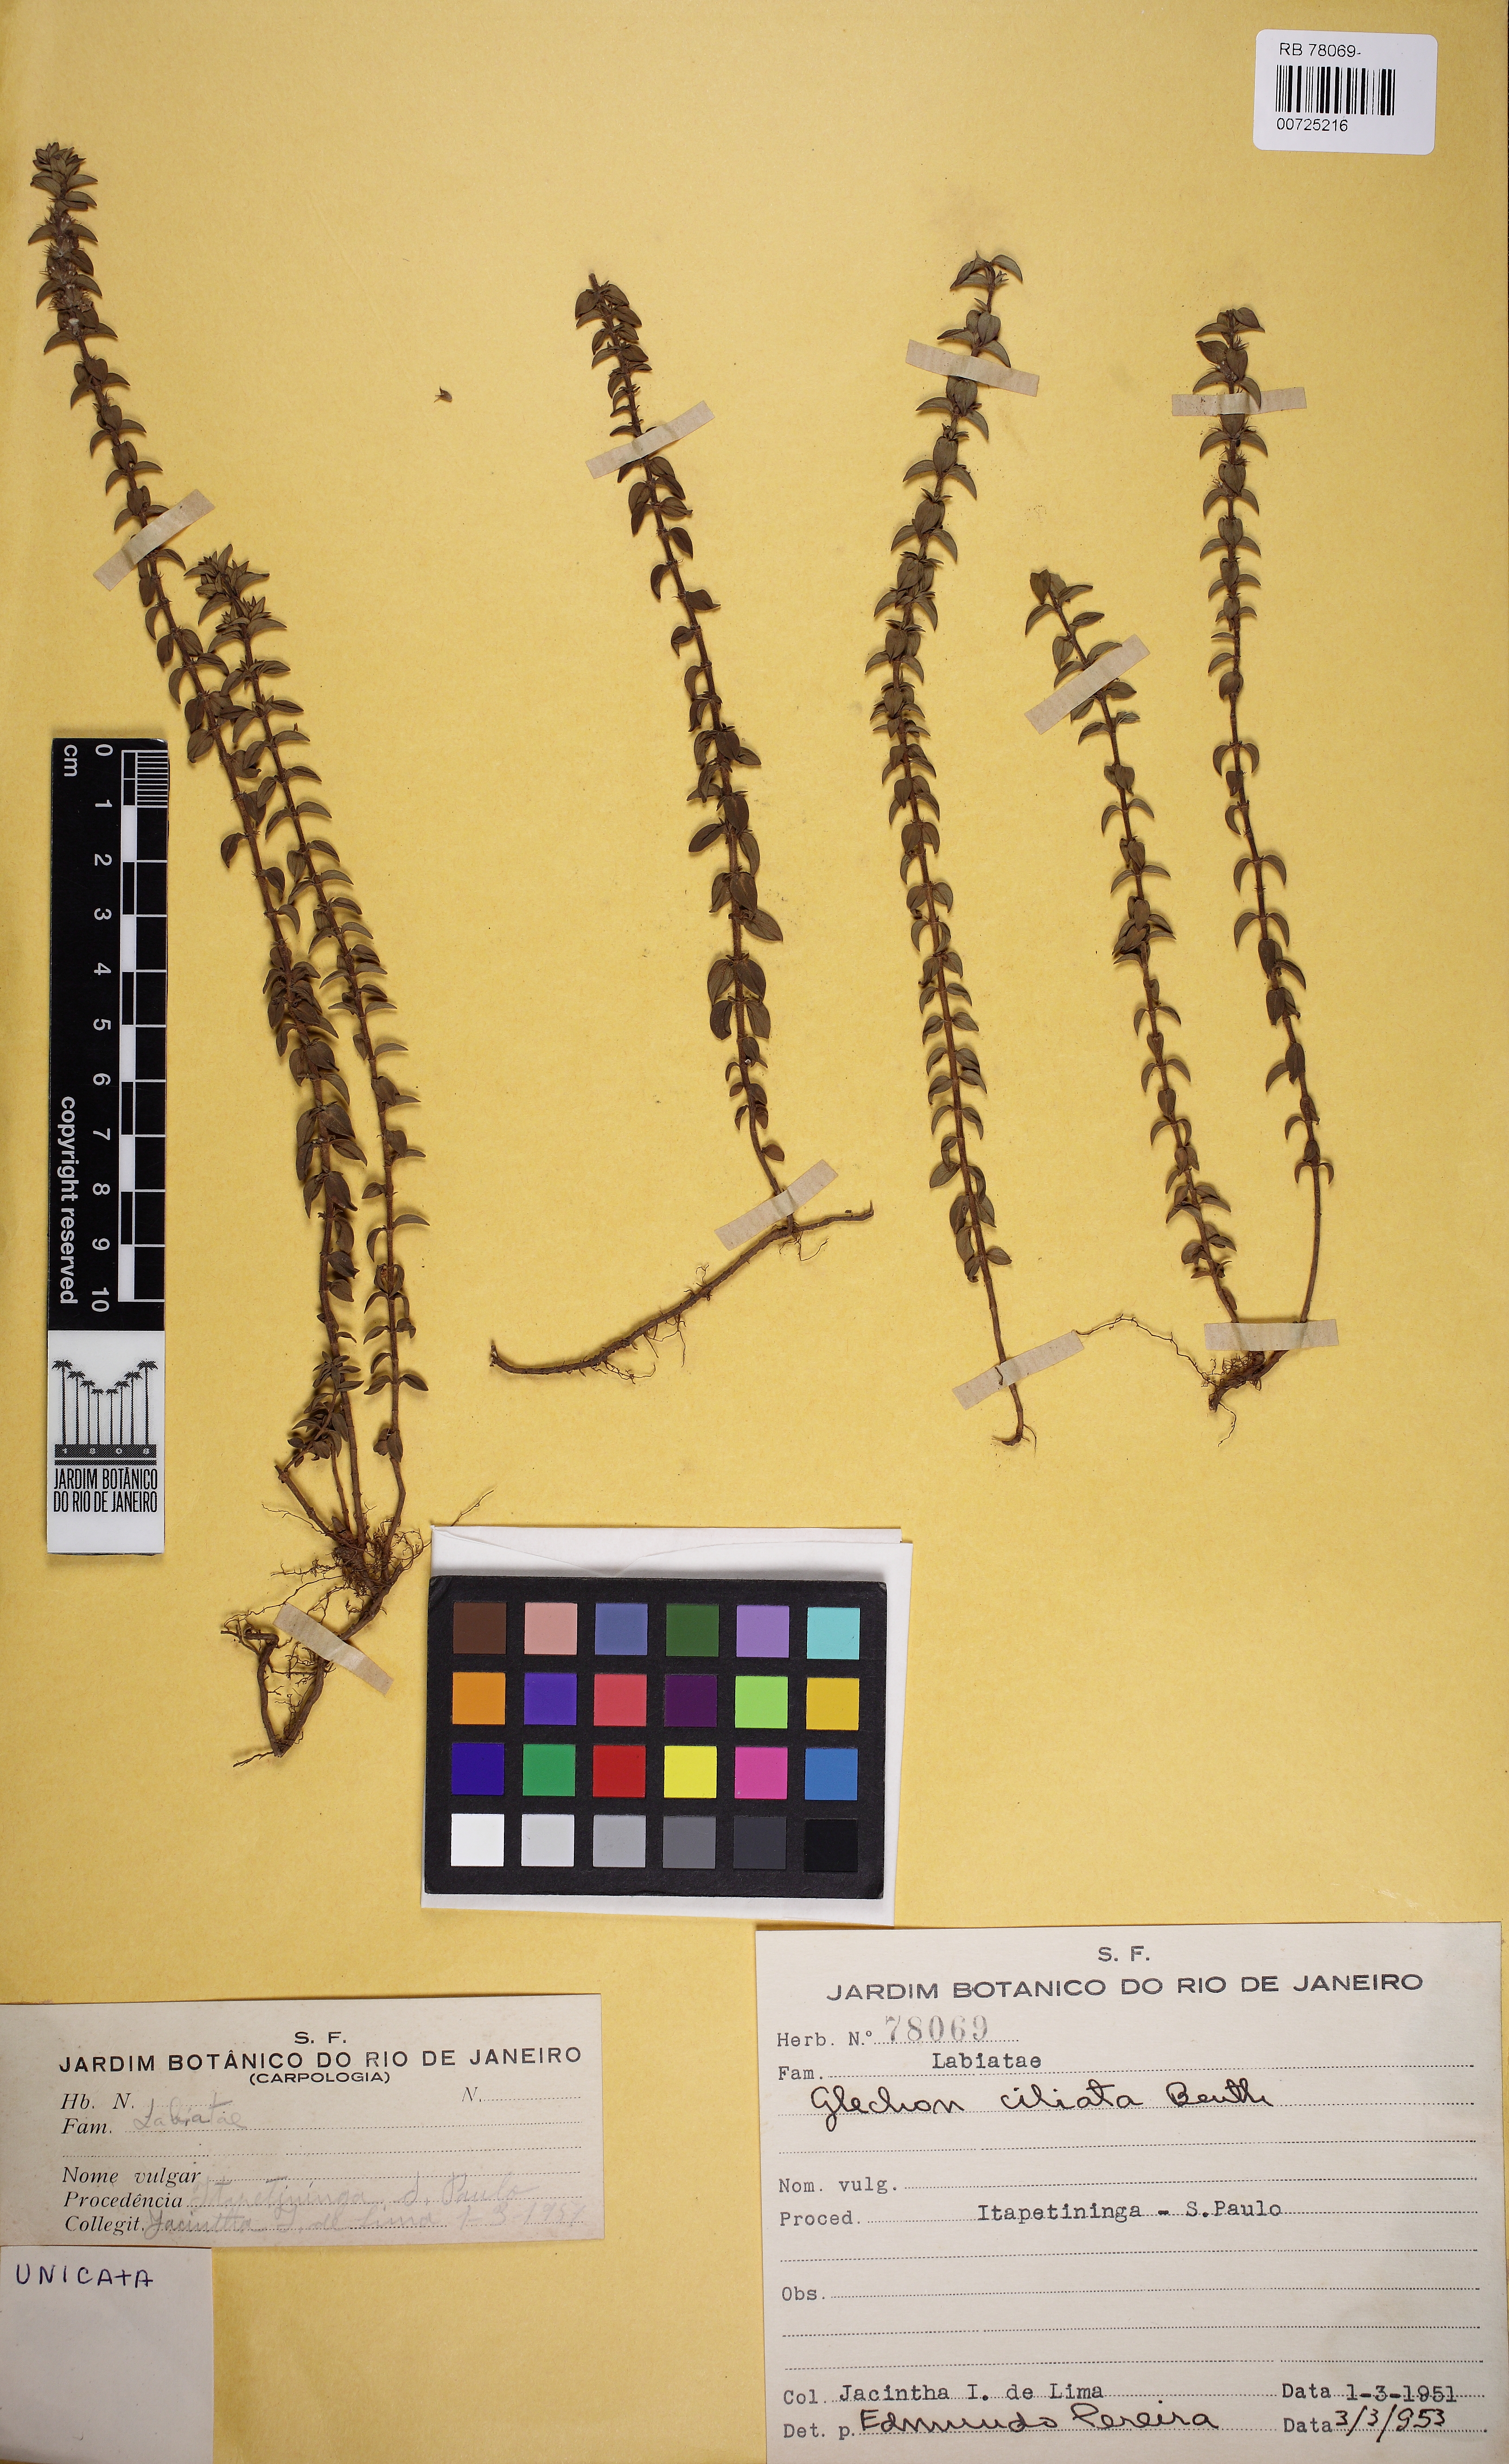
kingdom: Plantae
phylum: Tracheophyta
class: Magnoliopsida
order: Lamiales
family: Lamiaceae
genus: Glechon
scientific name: Glechon ciliata
